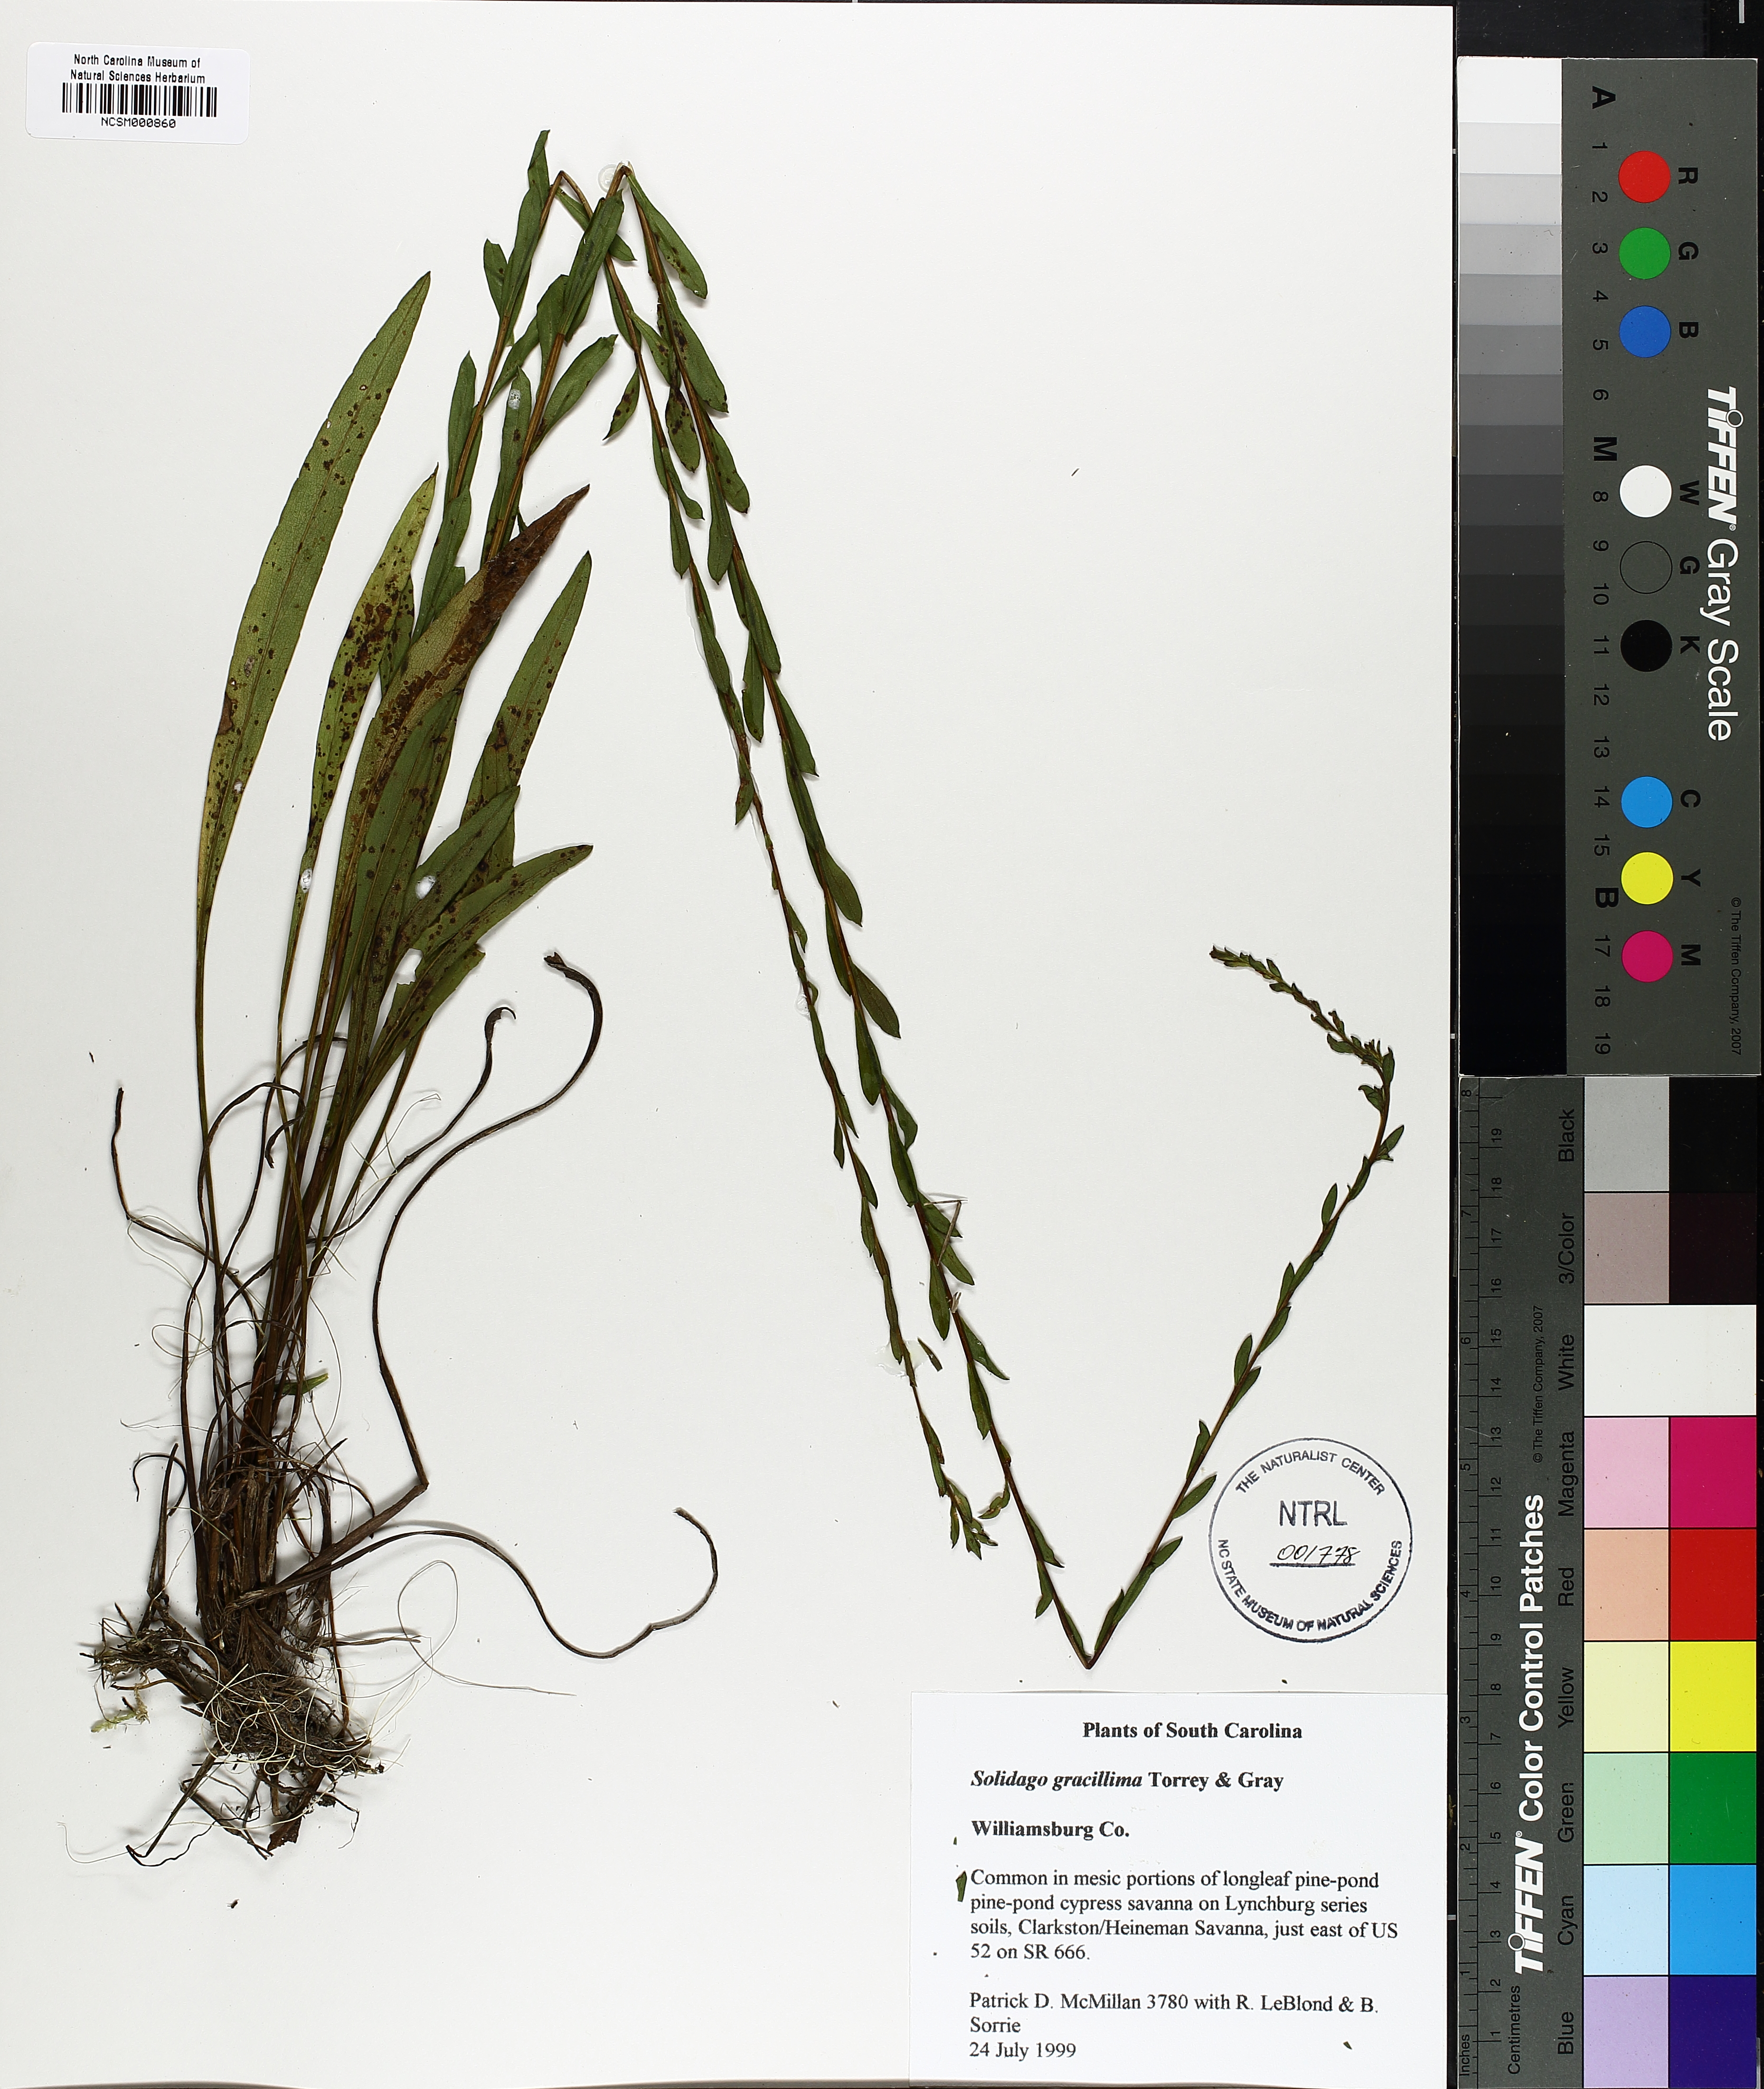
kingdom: Plantae
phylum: Tracheophyta
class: Magnoliopsida
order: Asterales
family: Asteraceae
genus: Solidago
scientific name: Solidago gracillima
